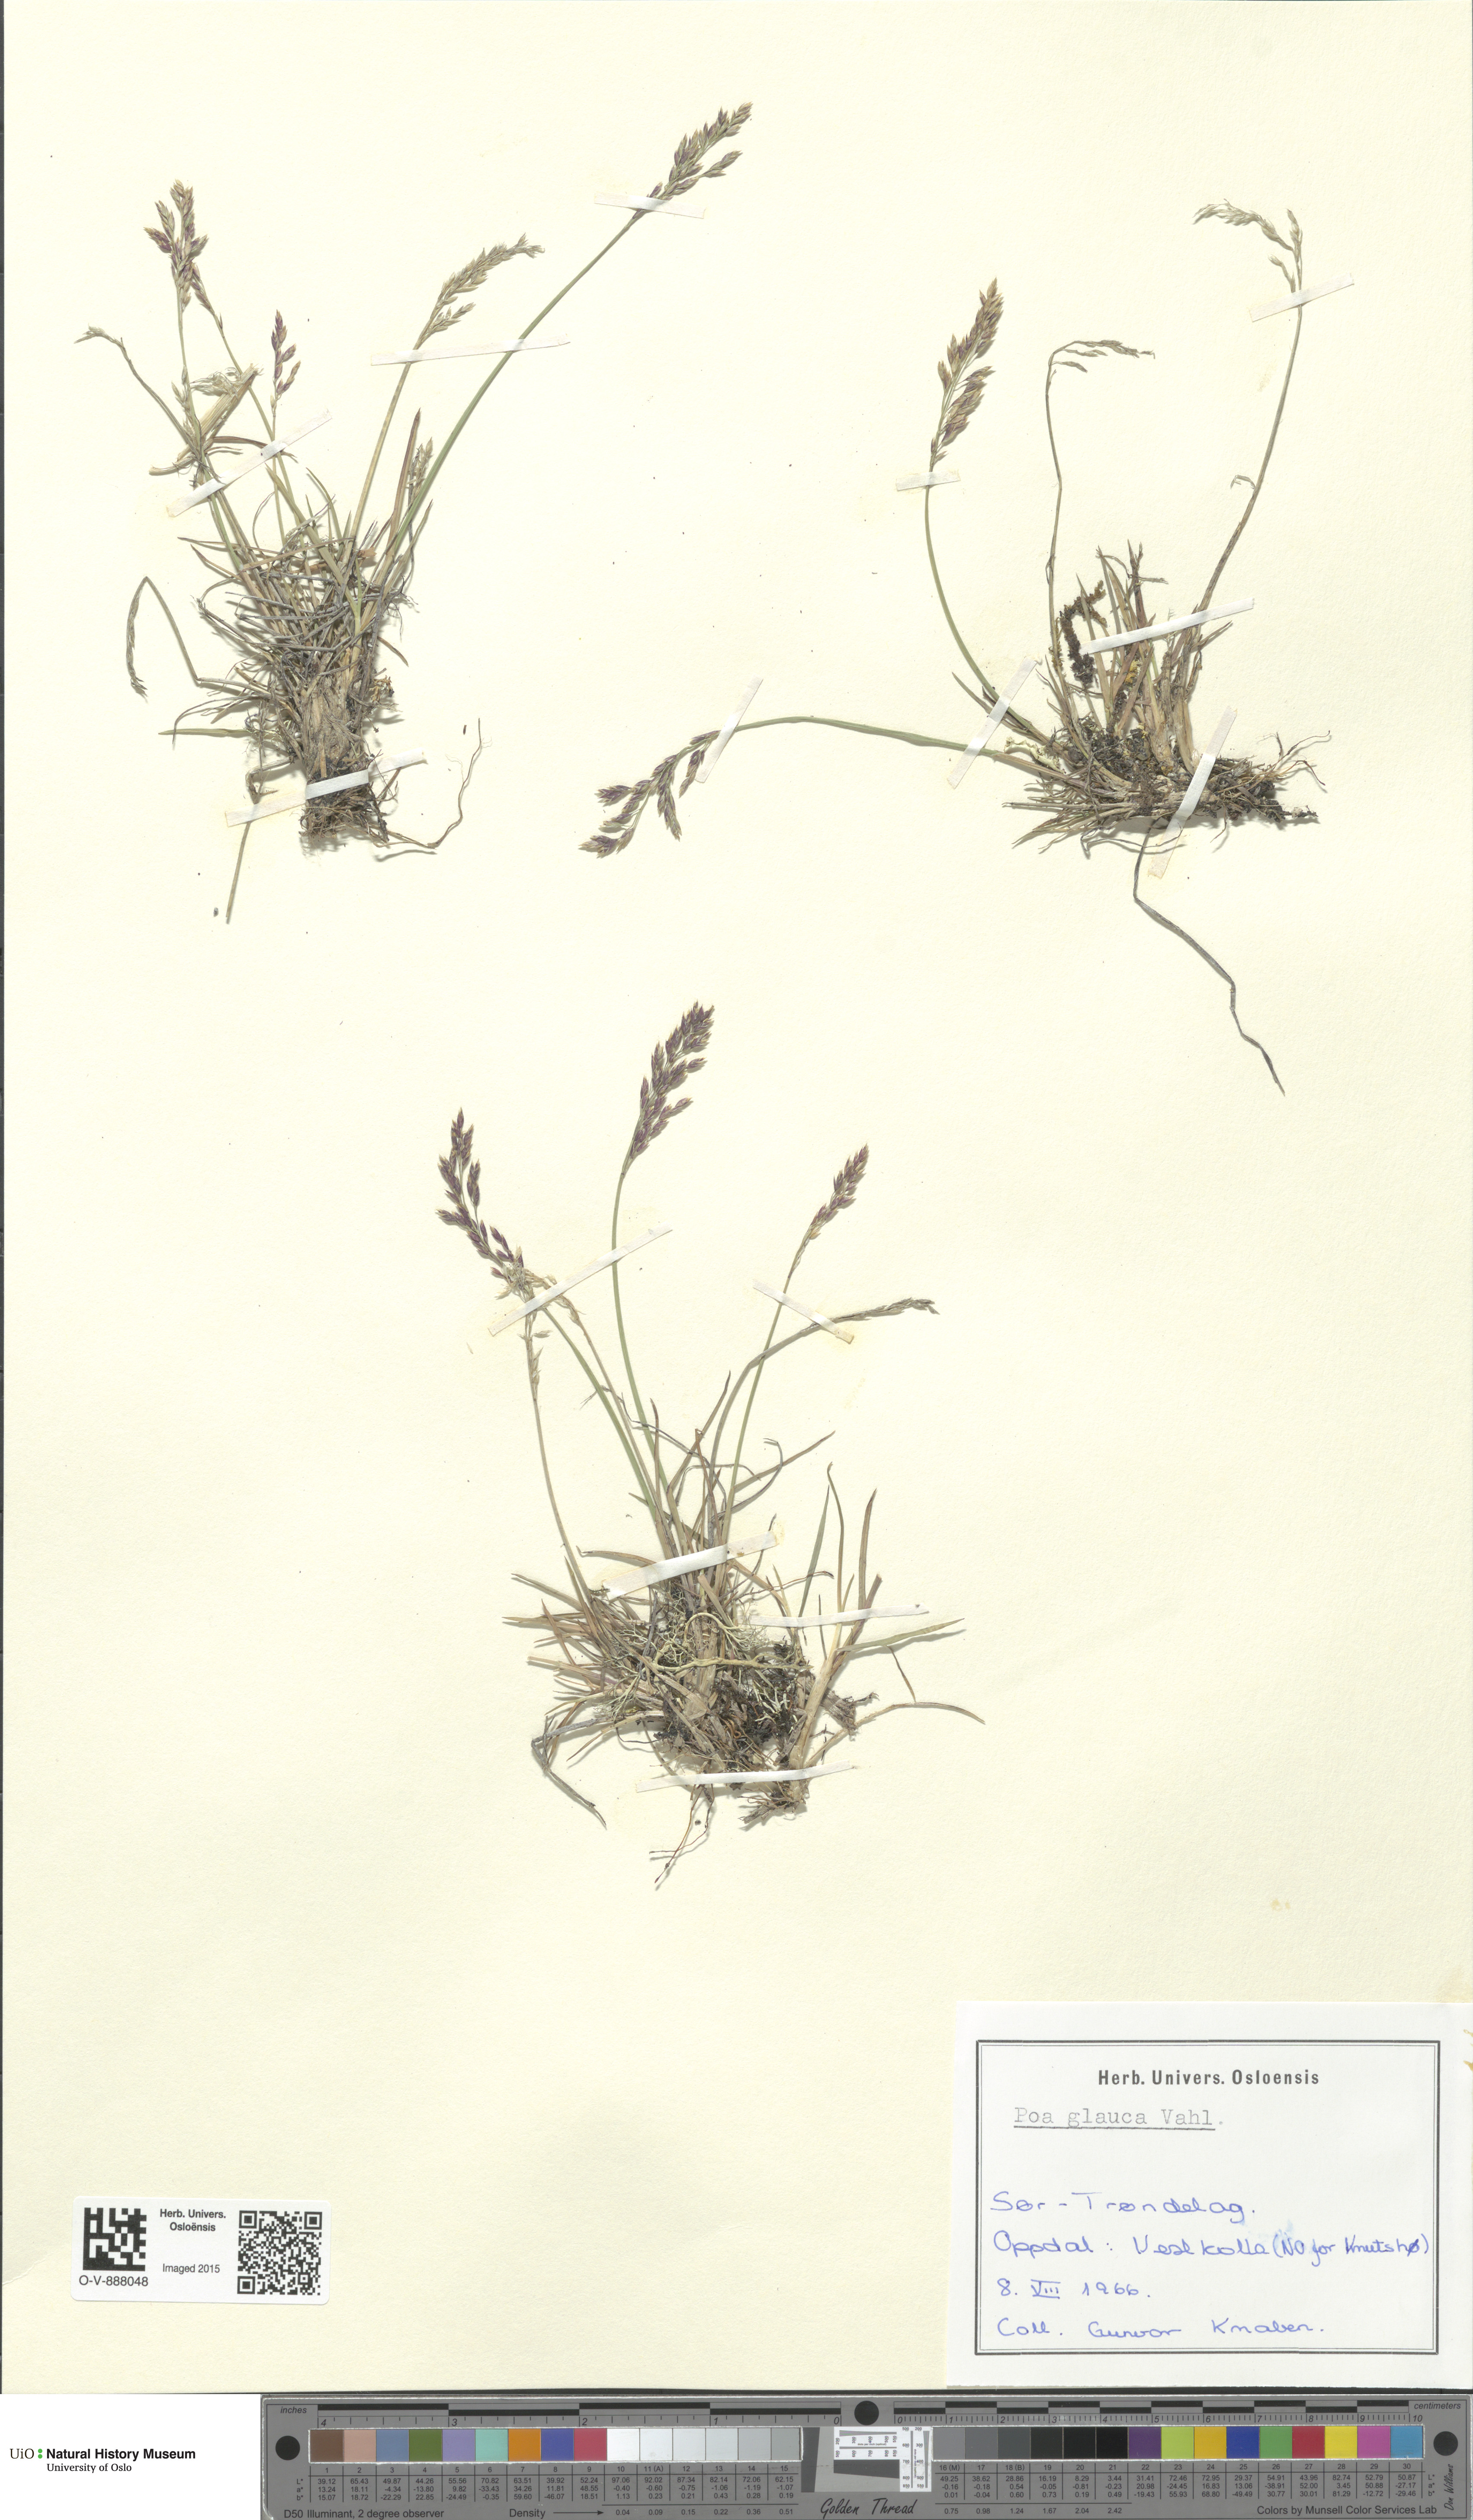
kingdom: Plantae
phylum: Tracheophyta
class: Liliopsida
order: Poales
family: Poaceae
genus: Poa
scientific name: Poa glauca
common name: Glaucous bluegrass
